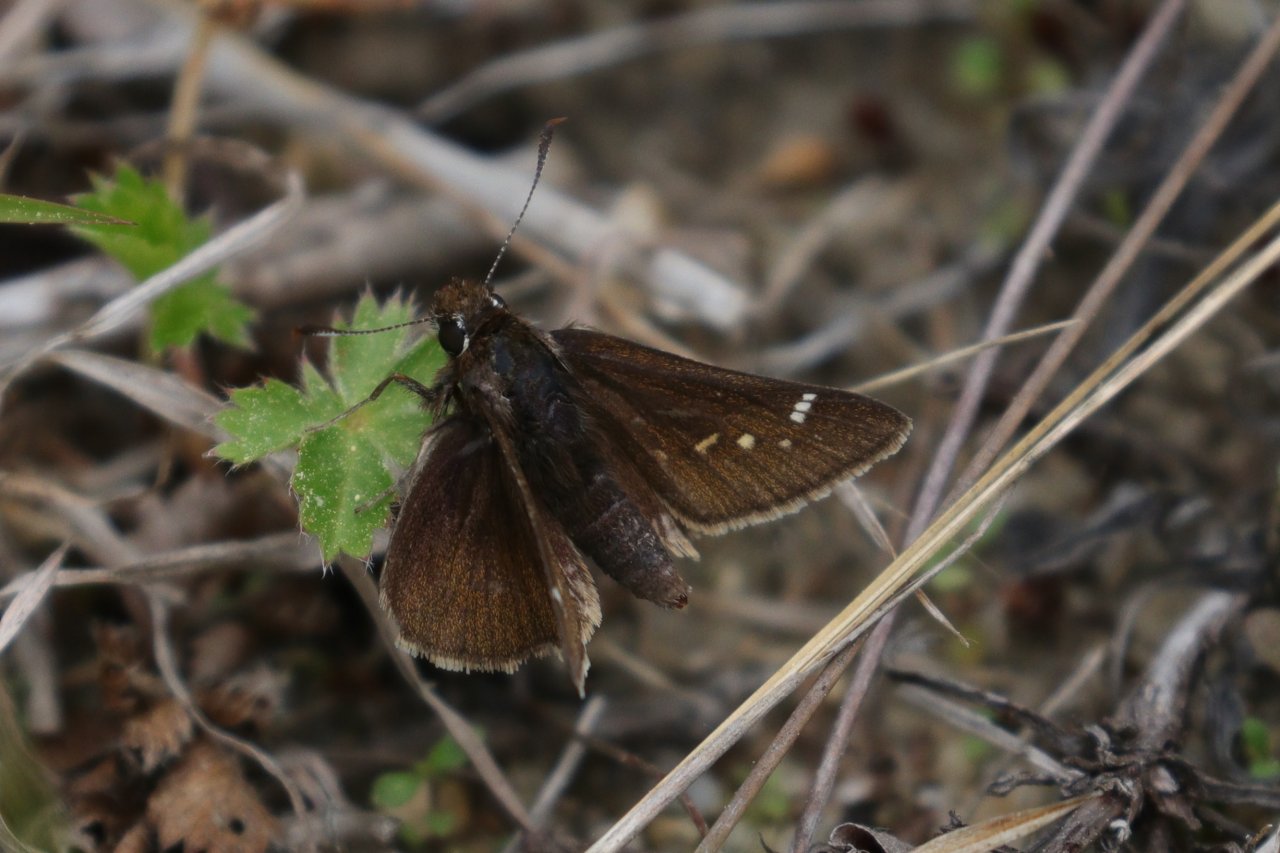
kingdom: Animalia
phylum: Arthropoda
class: Insecta
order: Lepidoptera
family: Hesperiidae
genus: Atrytonopsis
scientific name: Atrytonopsis hianna
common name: Dusted Skipper
